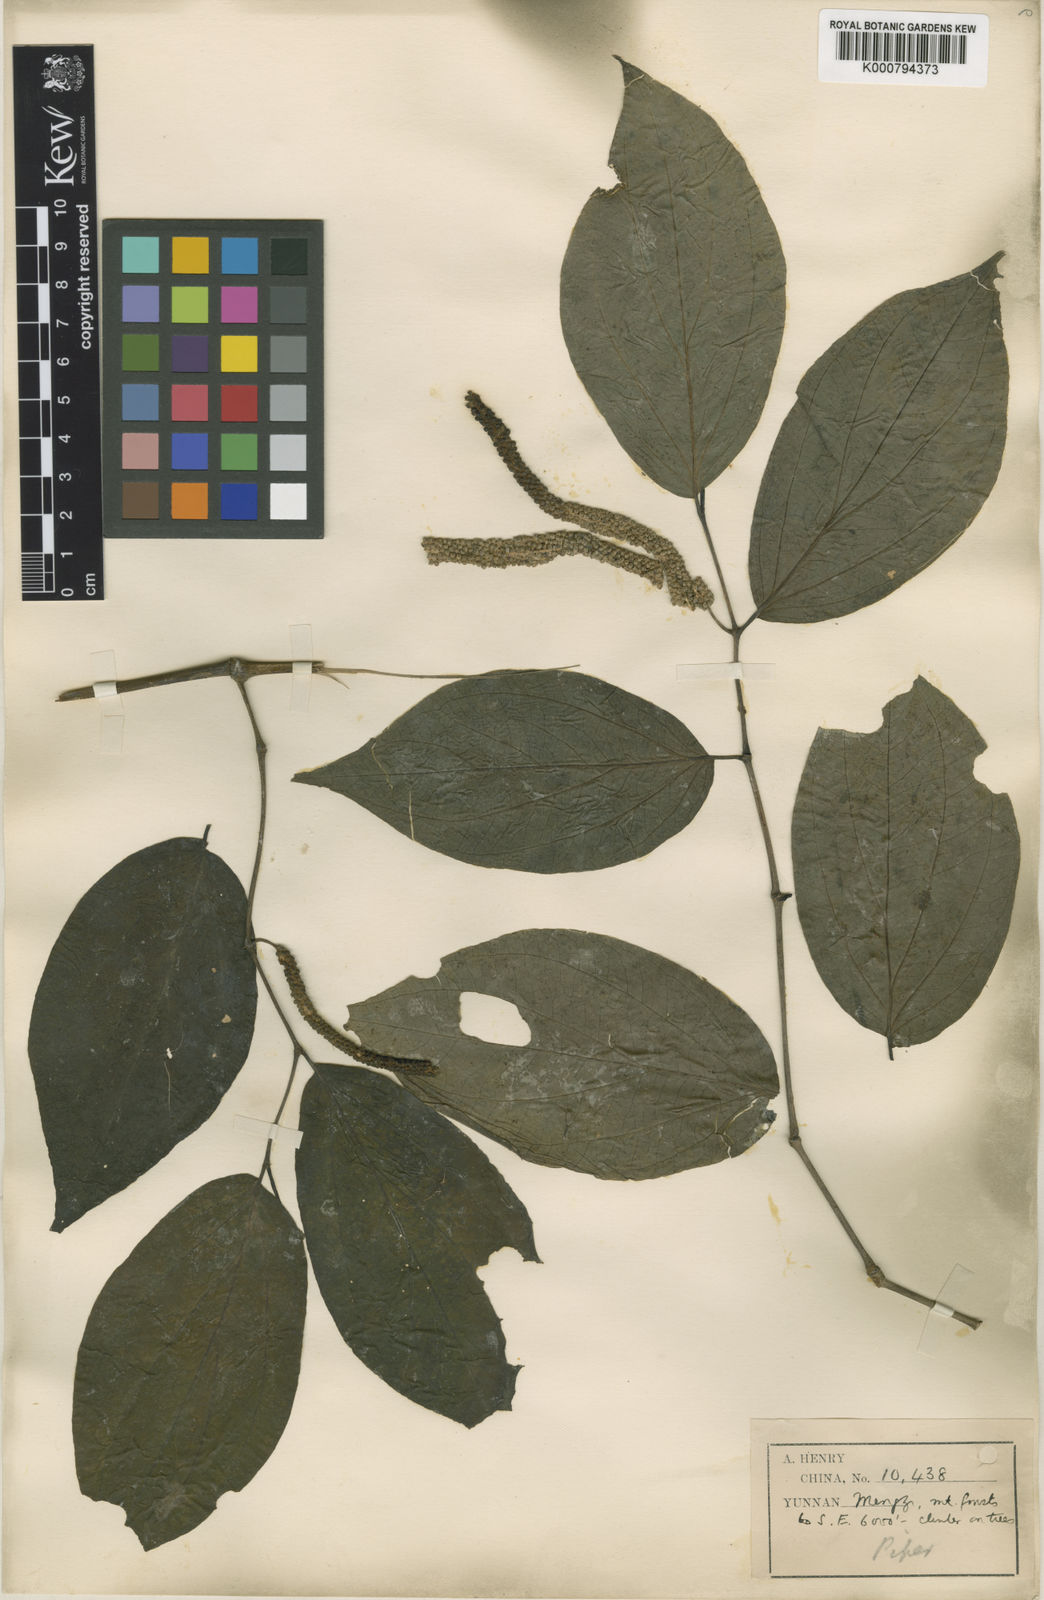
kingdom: Plantae
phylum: Tracheophyta
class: Magnoliopsida
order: Piperales
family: Piperaceae
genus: Piper
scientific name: Piper pedicellatum
